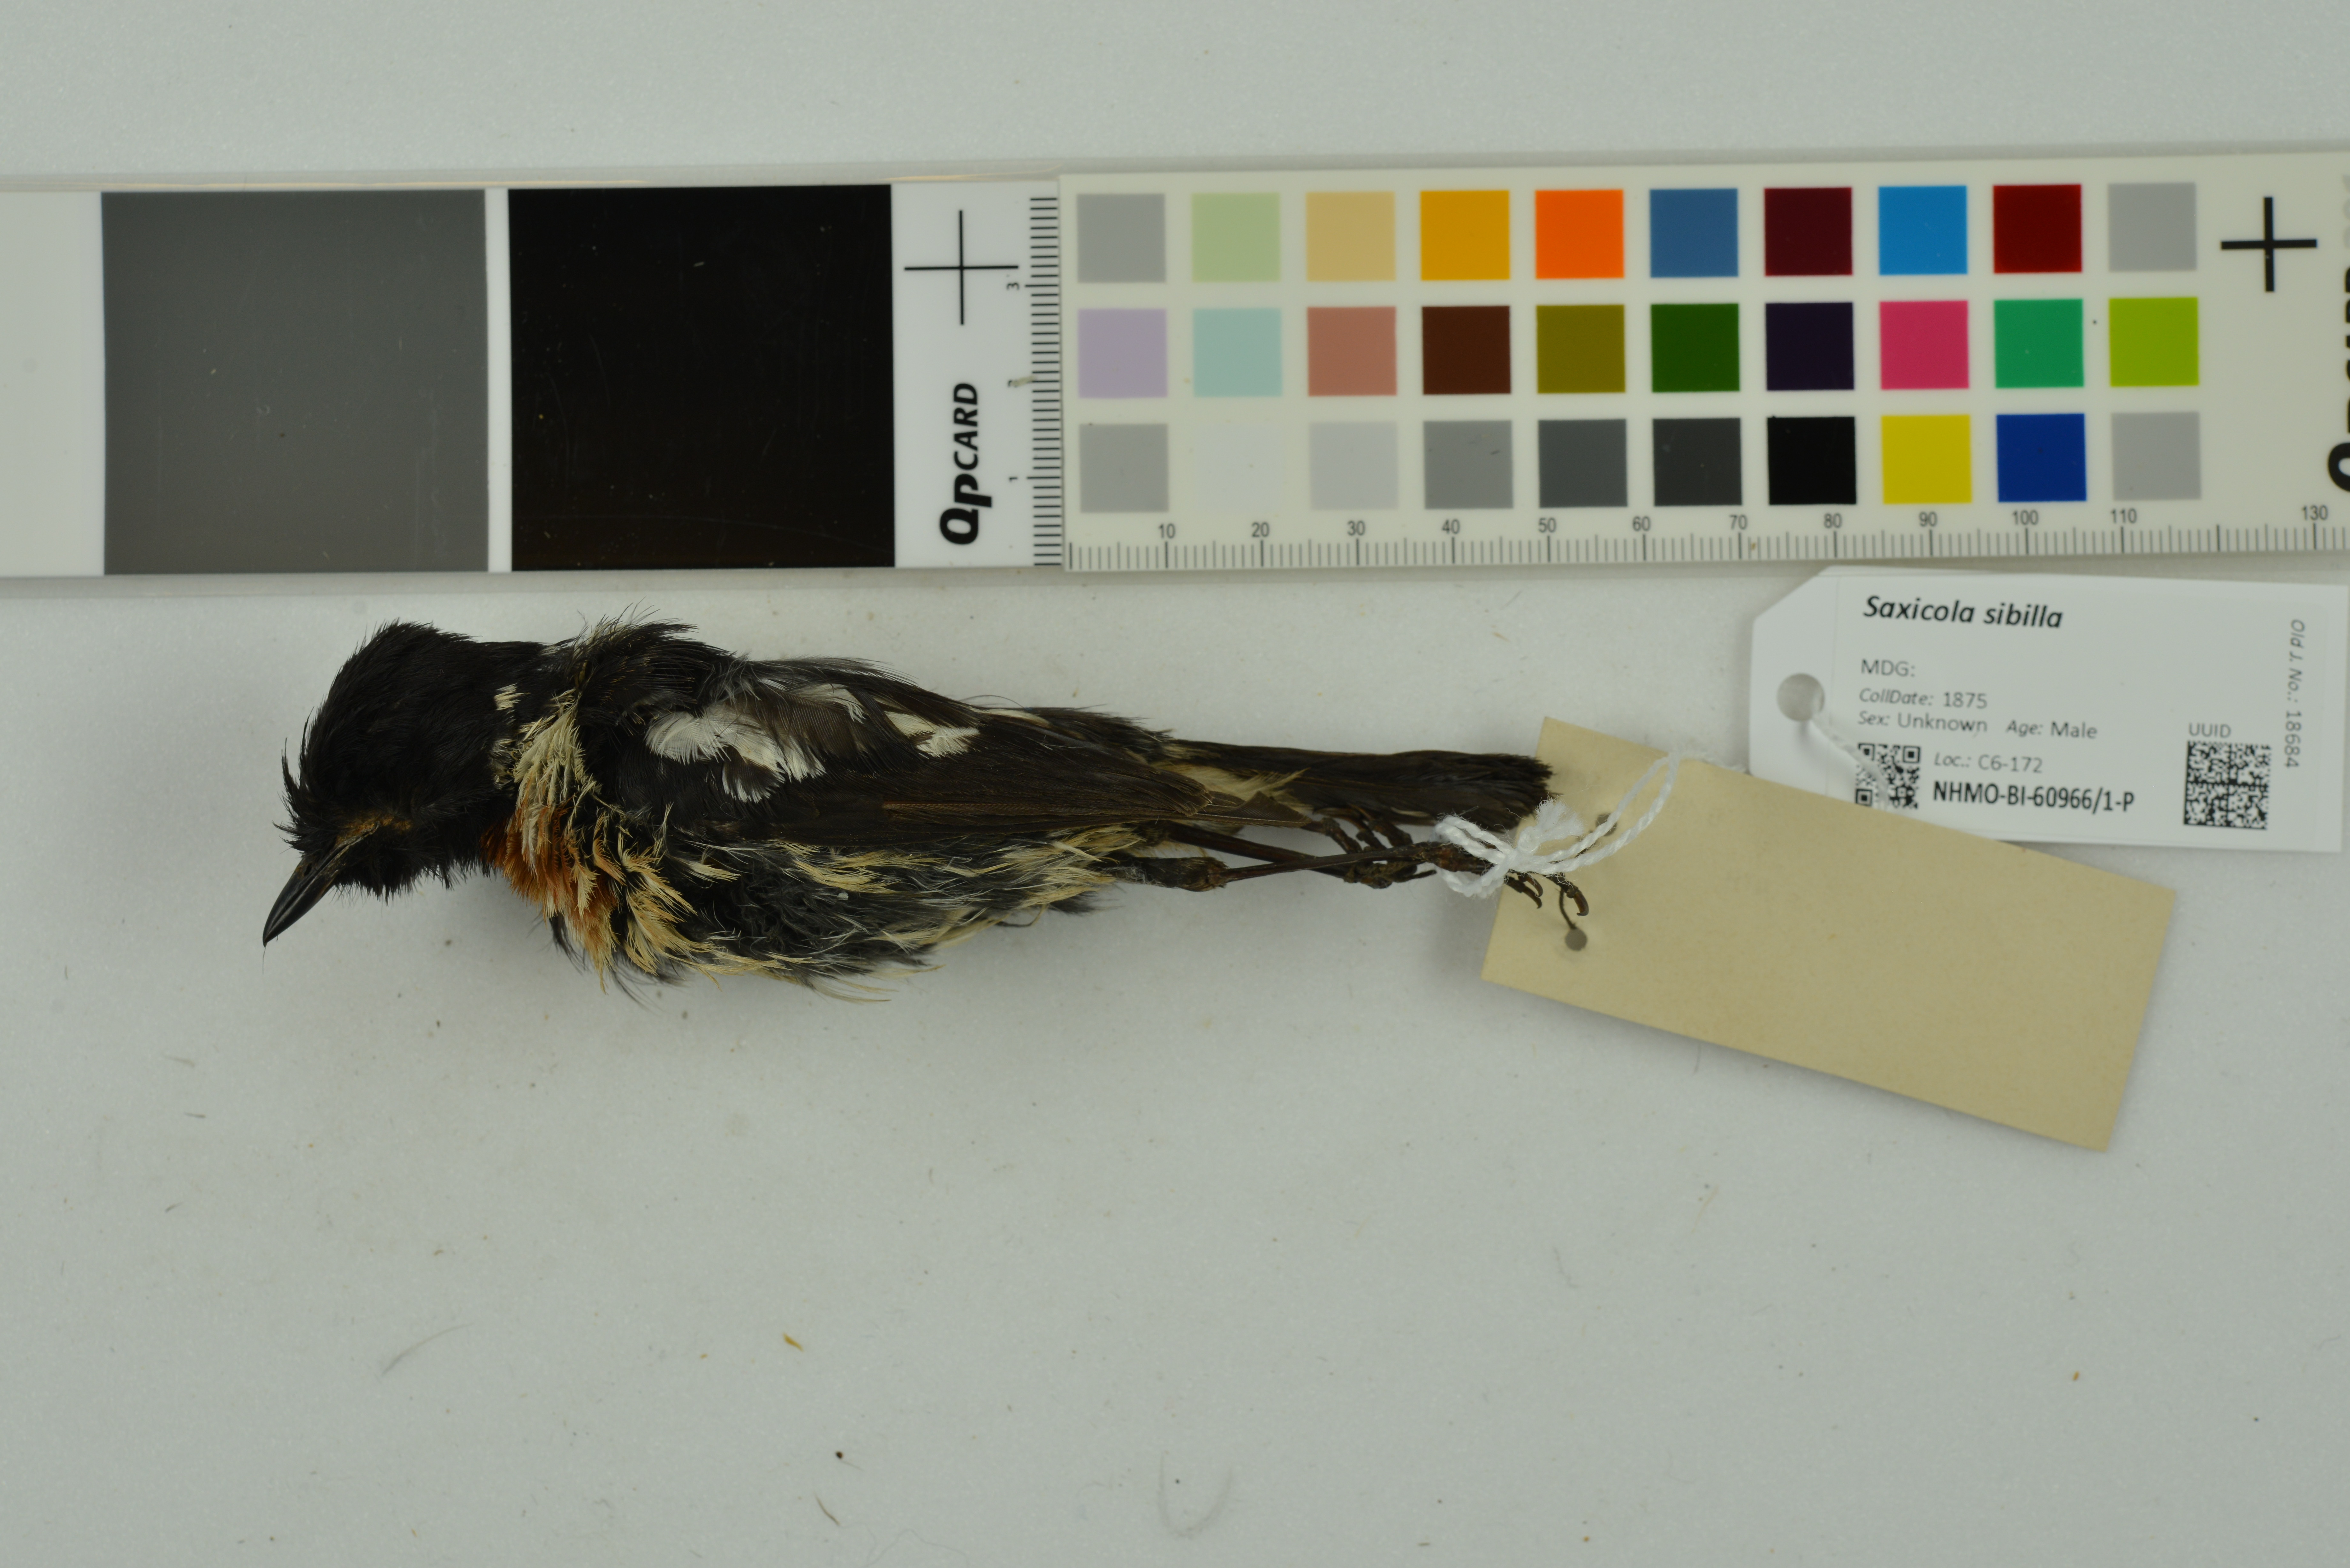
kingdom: Animalia
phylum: Chordata
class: Aves
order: Passeriformes
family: Muscicapidae
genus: Saxicola
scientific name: Saxicola sibilla
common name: Madagascan stonechat
